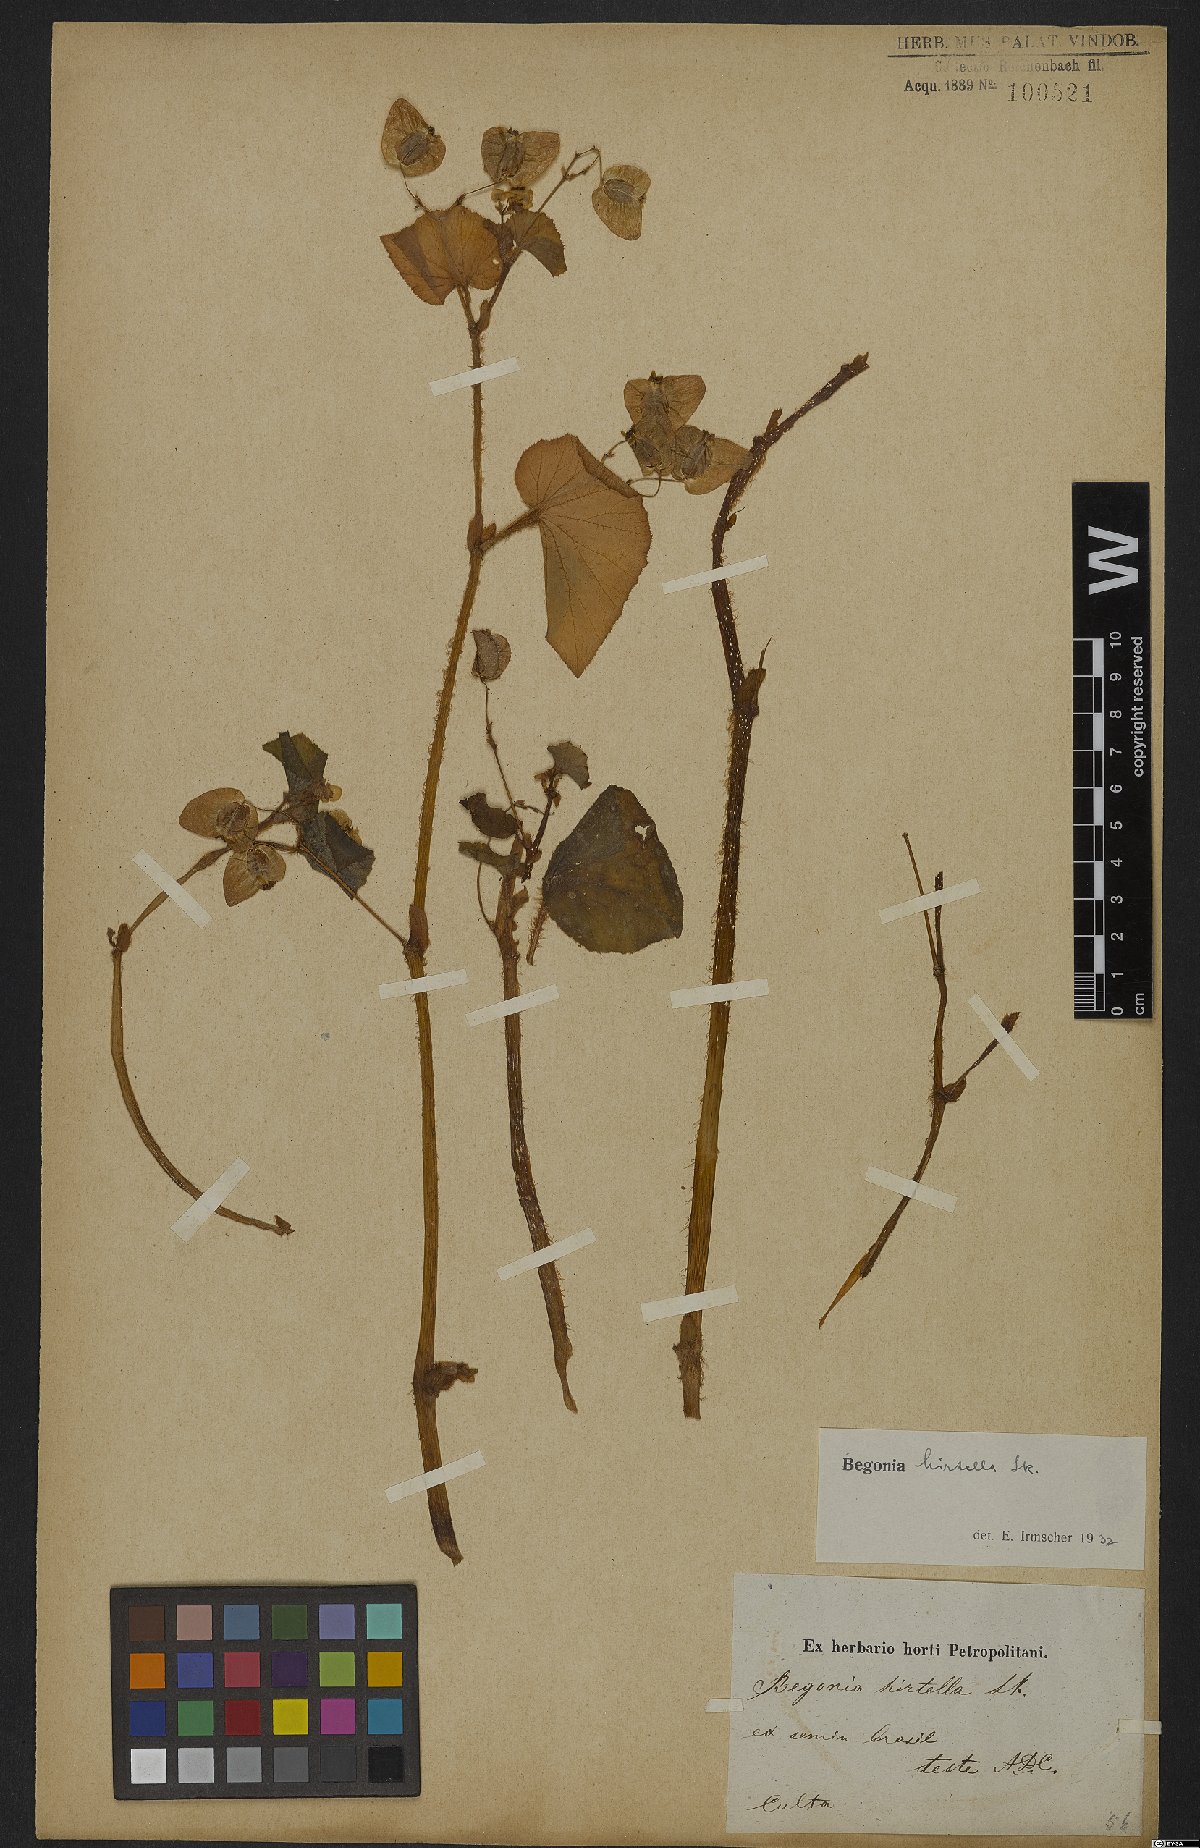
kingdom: Plantae
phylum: Tracheophyta
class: Magnoliopsida
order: Cucurbitales
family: Begoniaceae
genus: Begonia
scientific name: Begonia hirtella
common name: Brazilian begonia
